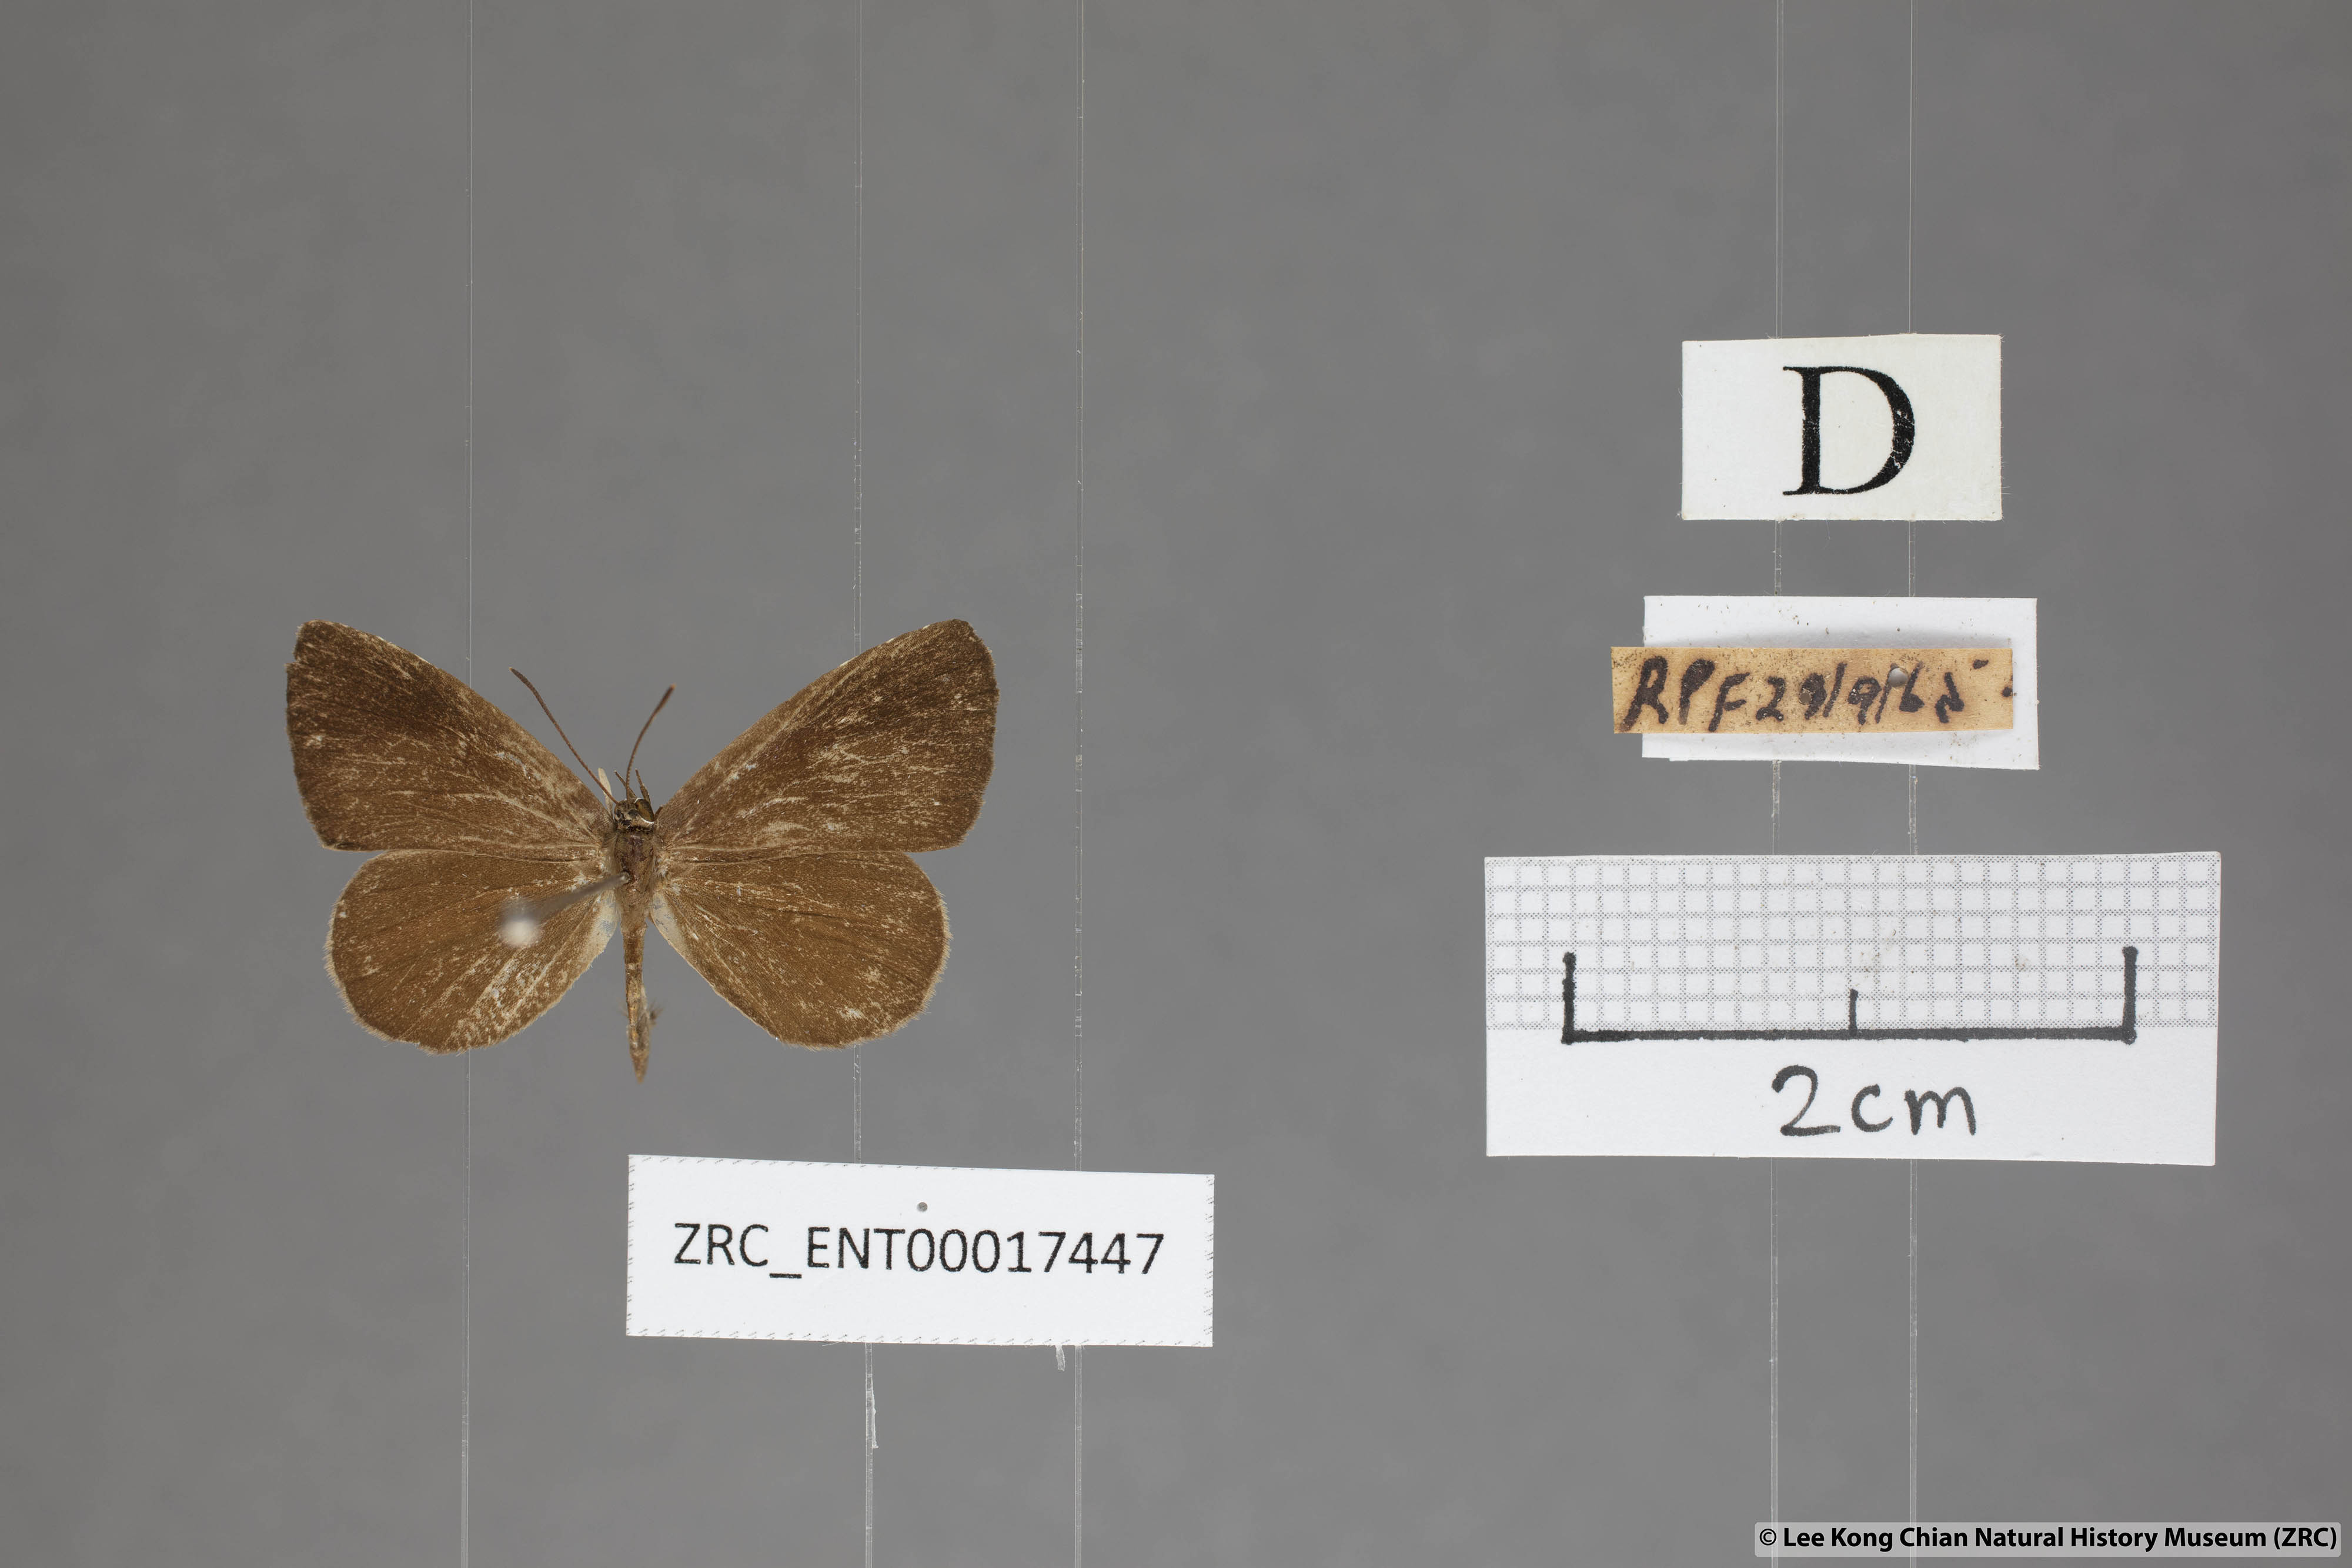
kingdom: Animalia
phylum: Arthropoda
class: Insecta
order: Lepidoptera
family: Lycaenidae
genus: Miletus
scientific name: Miletus gaesa
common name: Brown brownie
